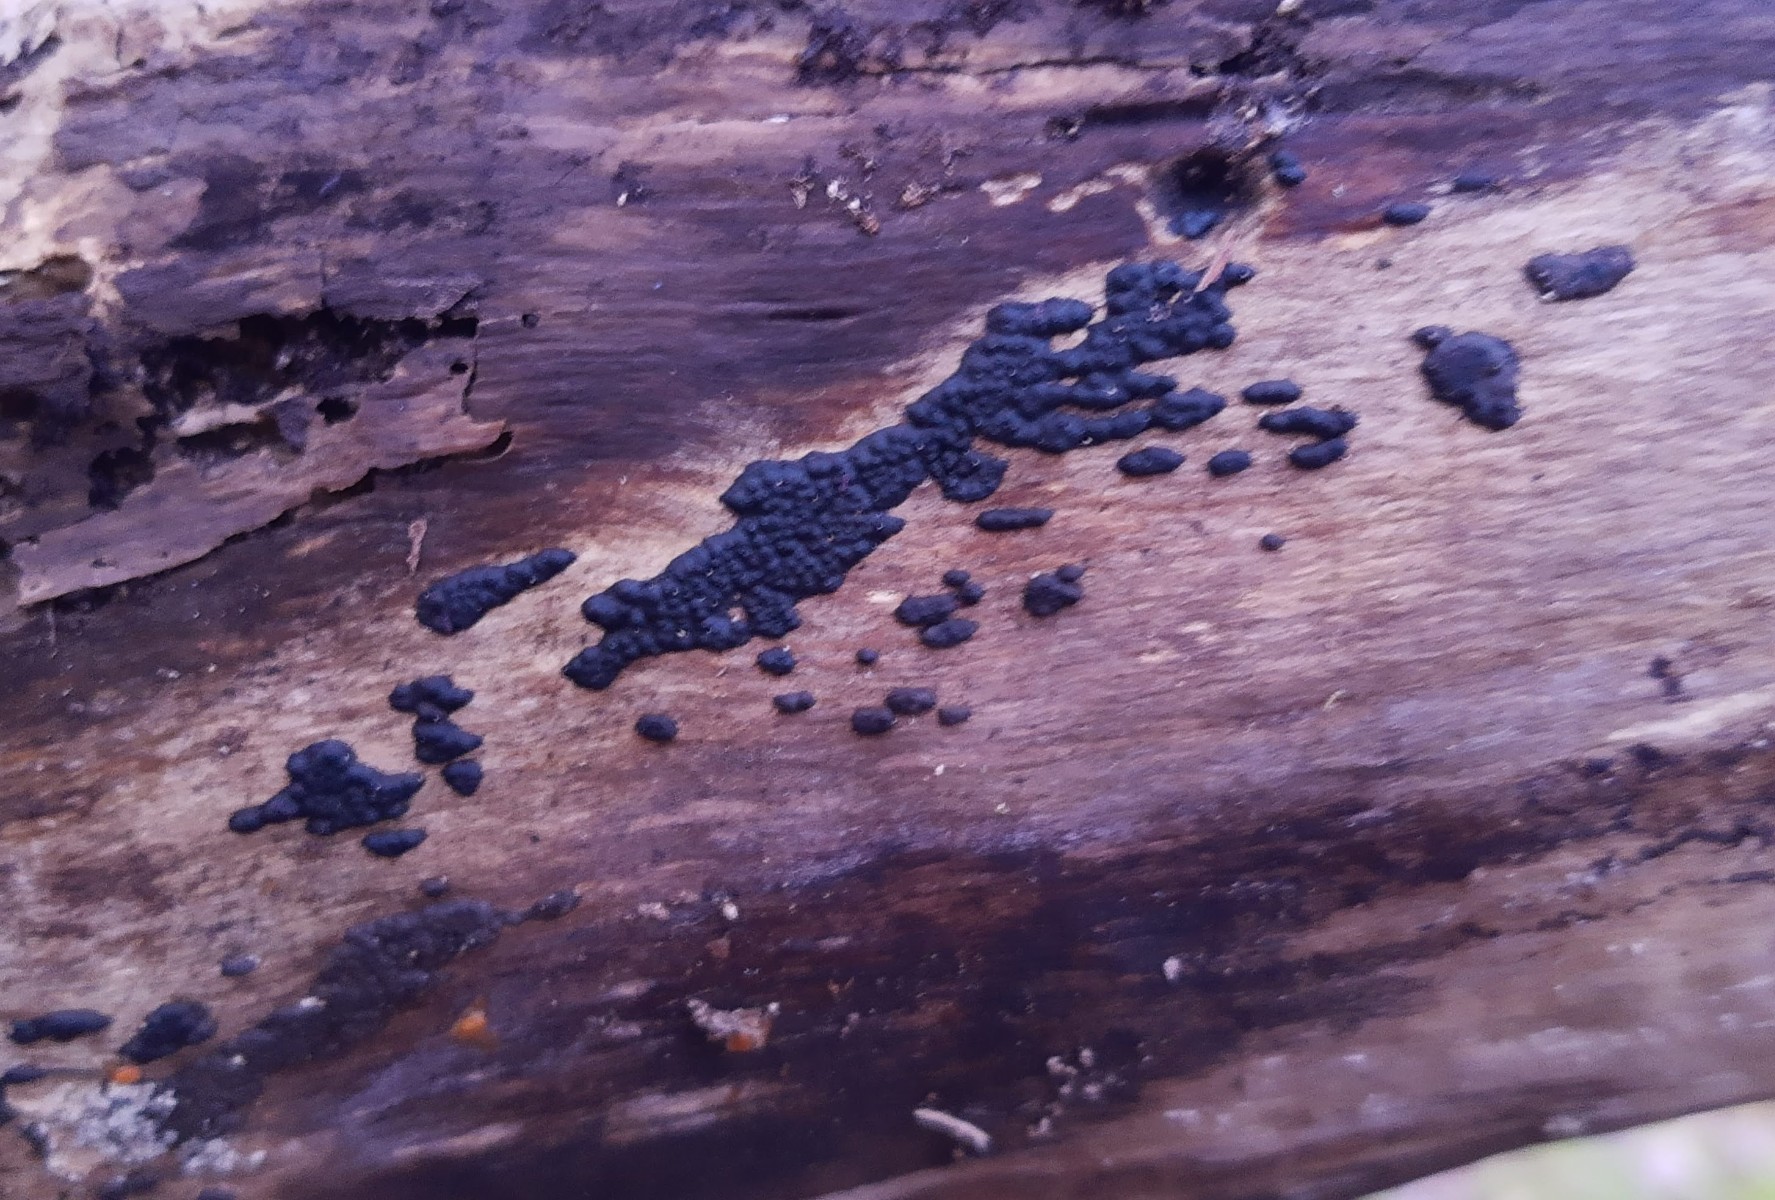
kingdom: Fungi
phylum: Ascomycota
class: Sordariomycetes
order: Xylariales
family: Xylariaceae
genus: Nemania
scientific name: Nemania serpens
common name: almindelig kuldyne
